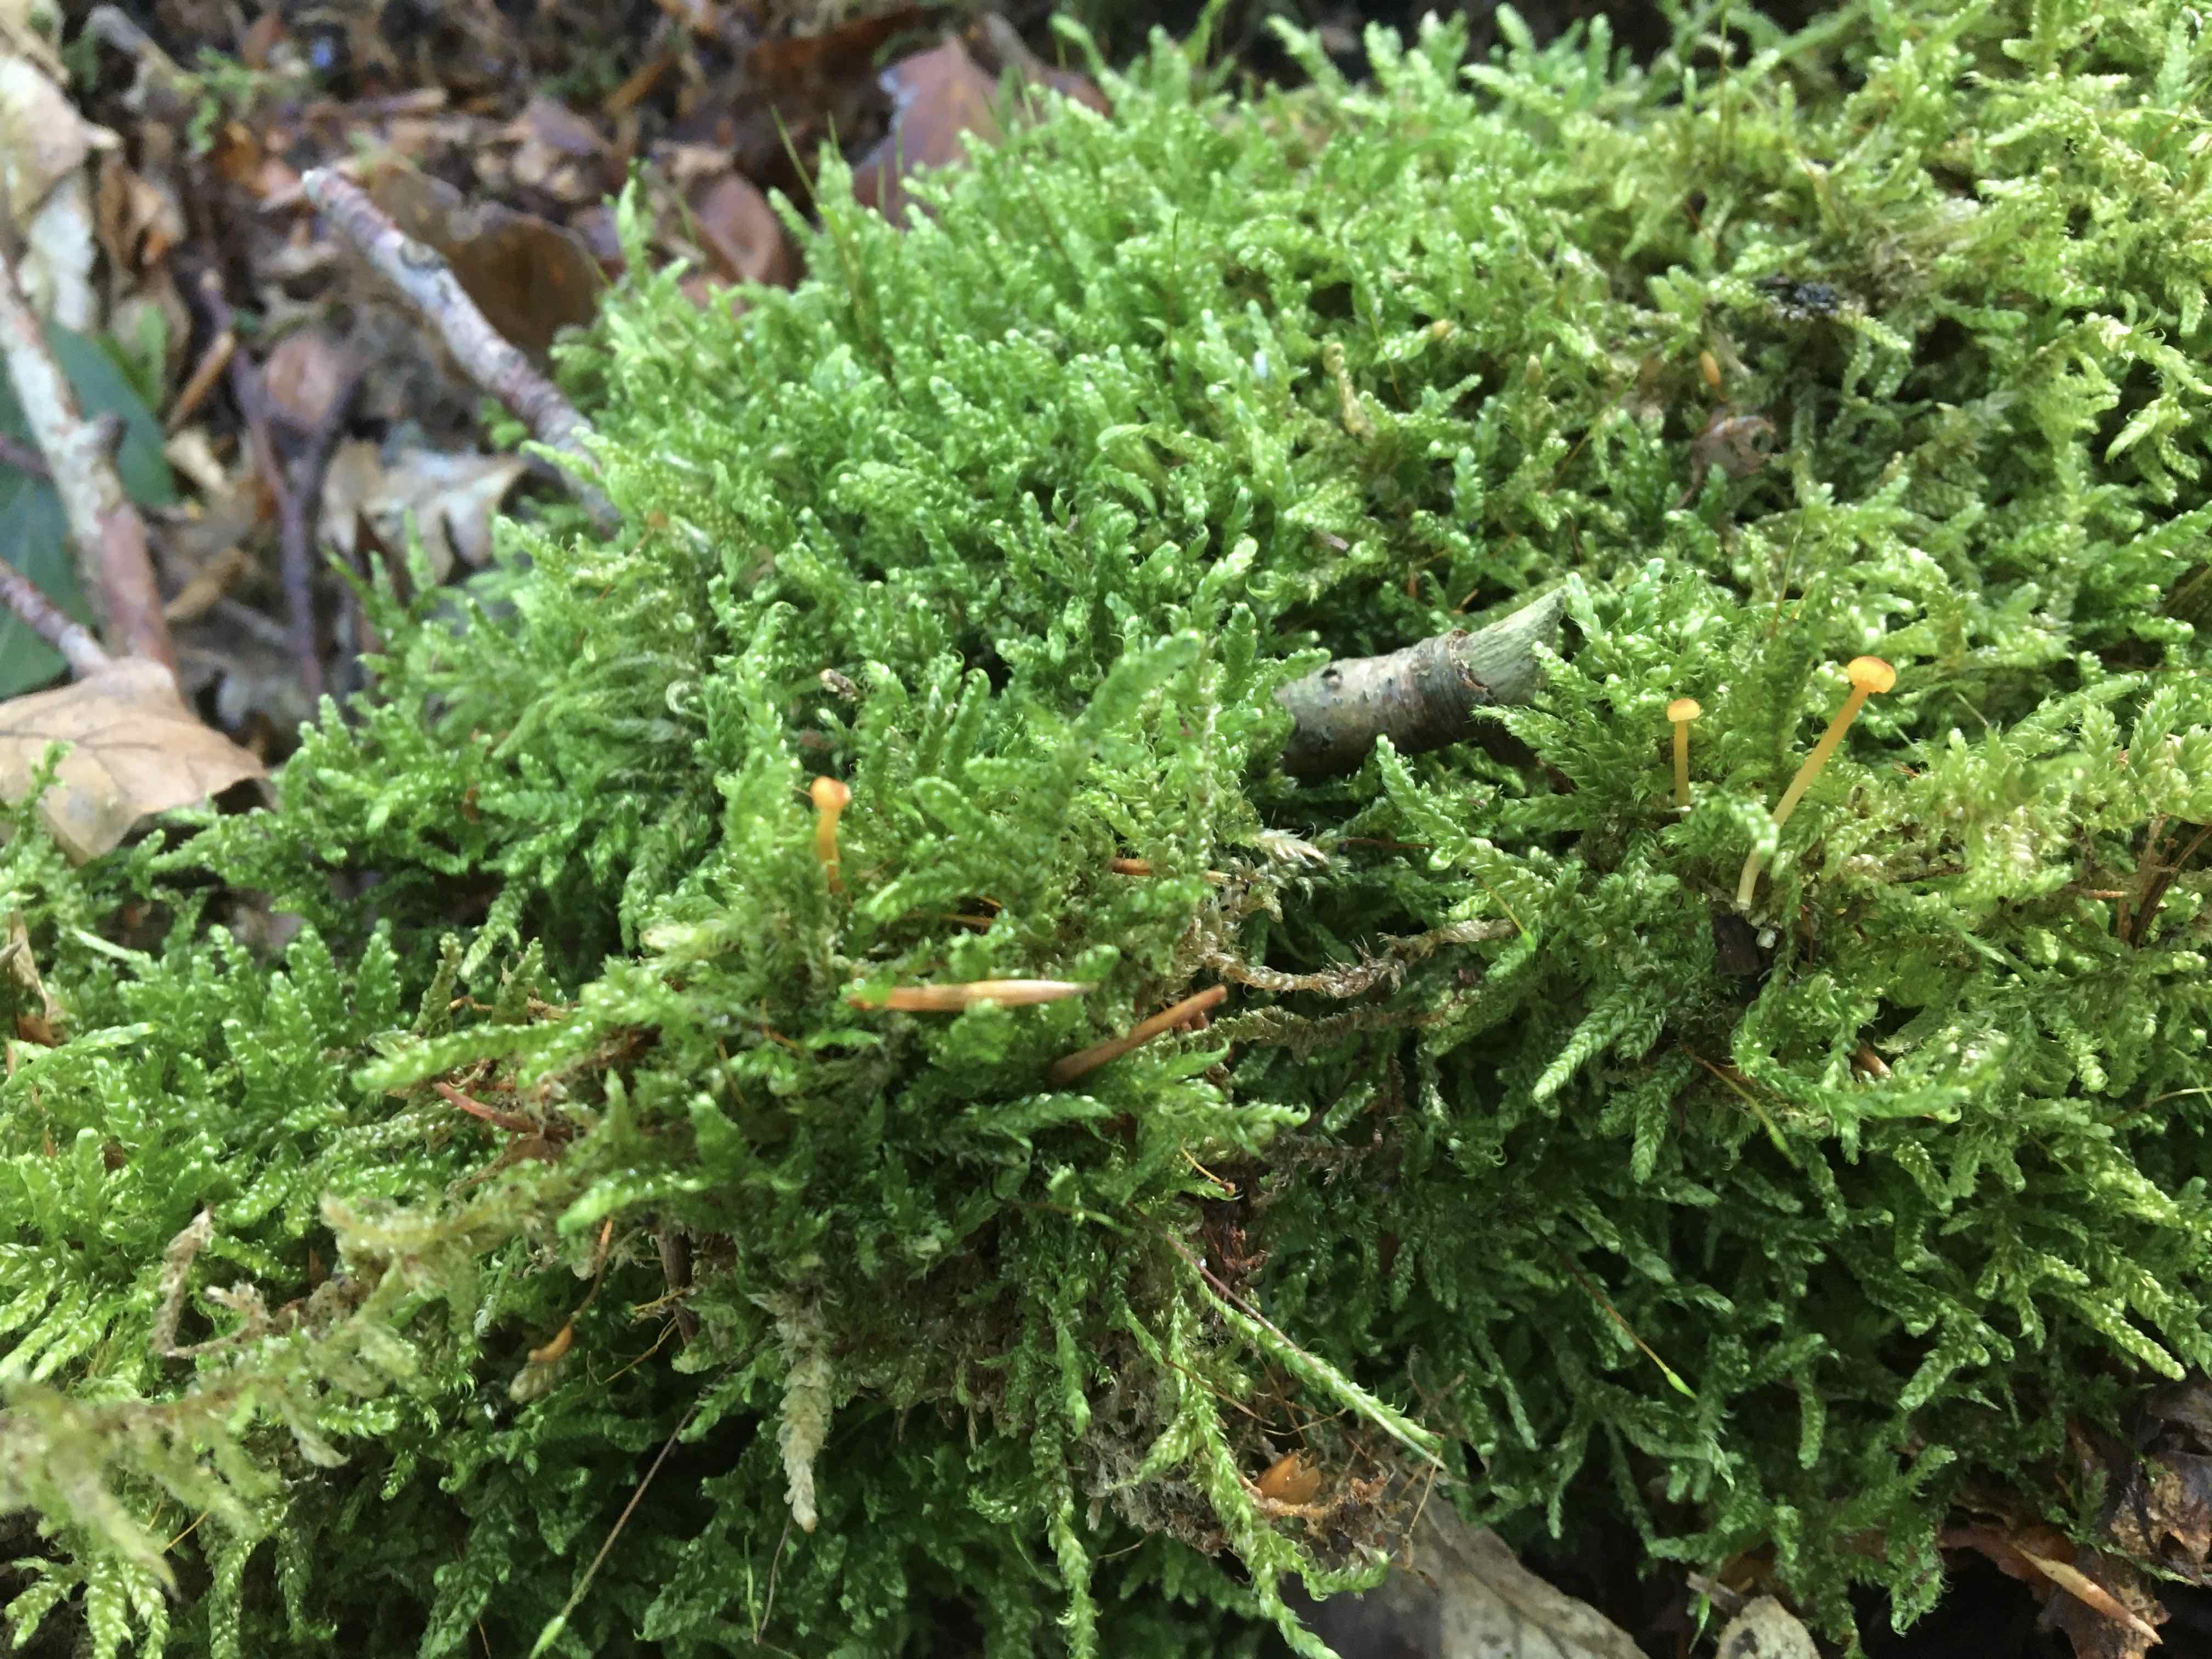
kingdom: Fungi
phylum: Basidiomycota
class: Agaricomycetes
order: Hymenochaetales
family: Rickenellaceae
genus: Rickenella
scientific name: Rickenella fibula
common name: orange mosnavlehat
